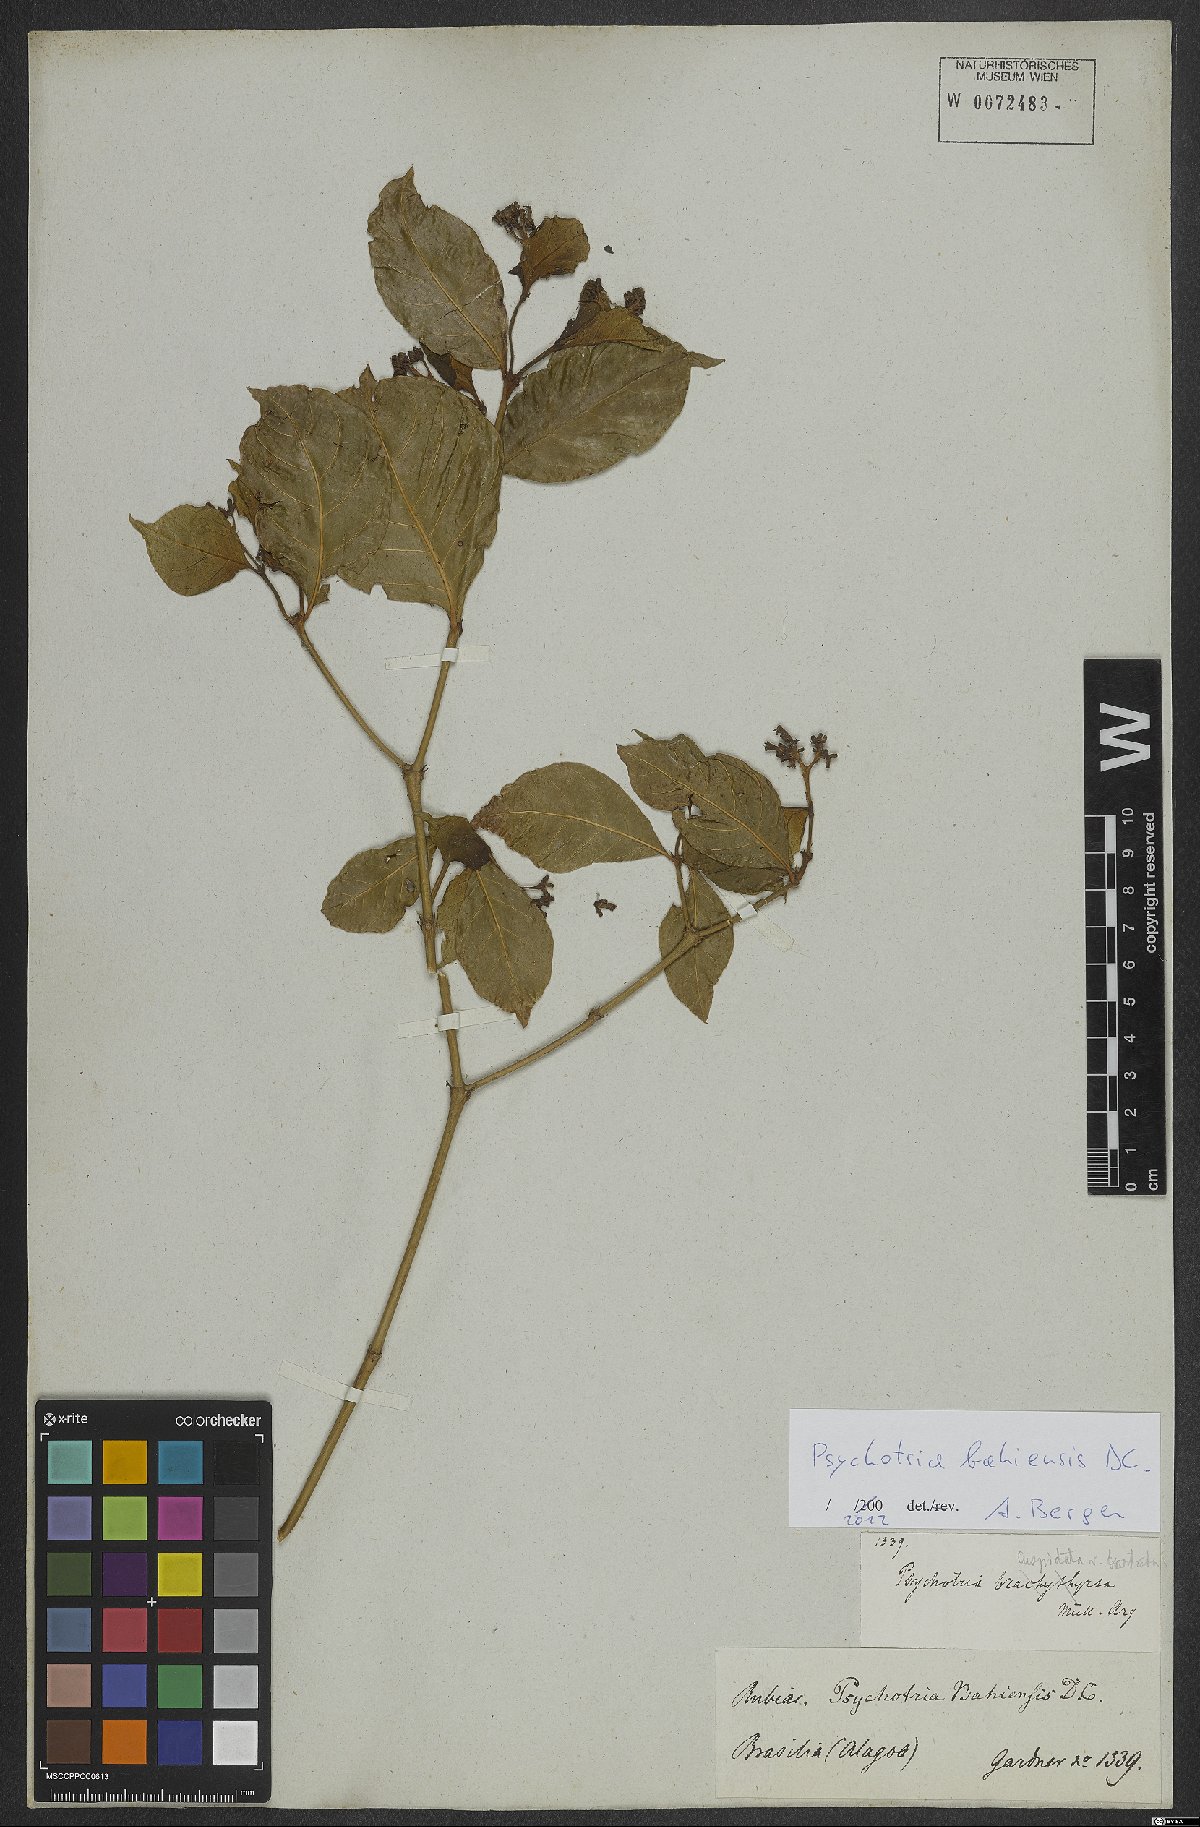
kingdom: Plantae
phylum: Tracheophyta
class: Magnoliopsida
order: Gentianales
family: Rubiaceae
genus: Psychotria
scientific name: Psychotria bahiensis
